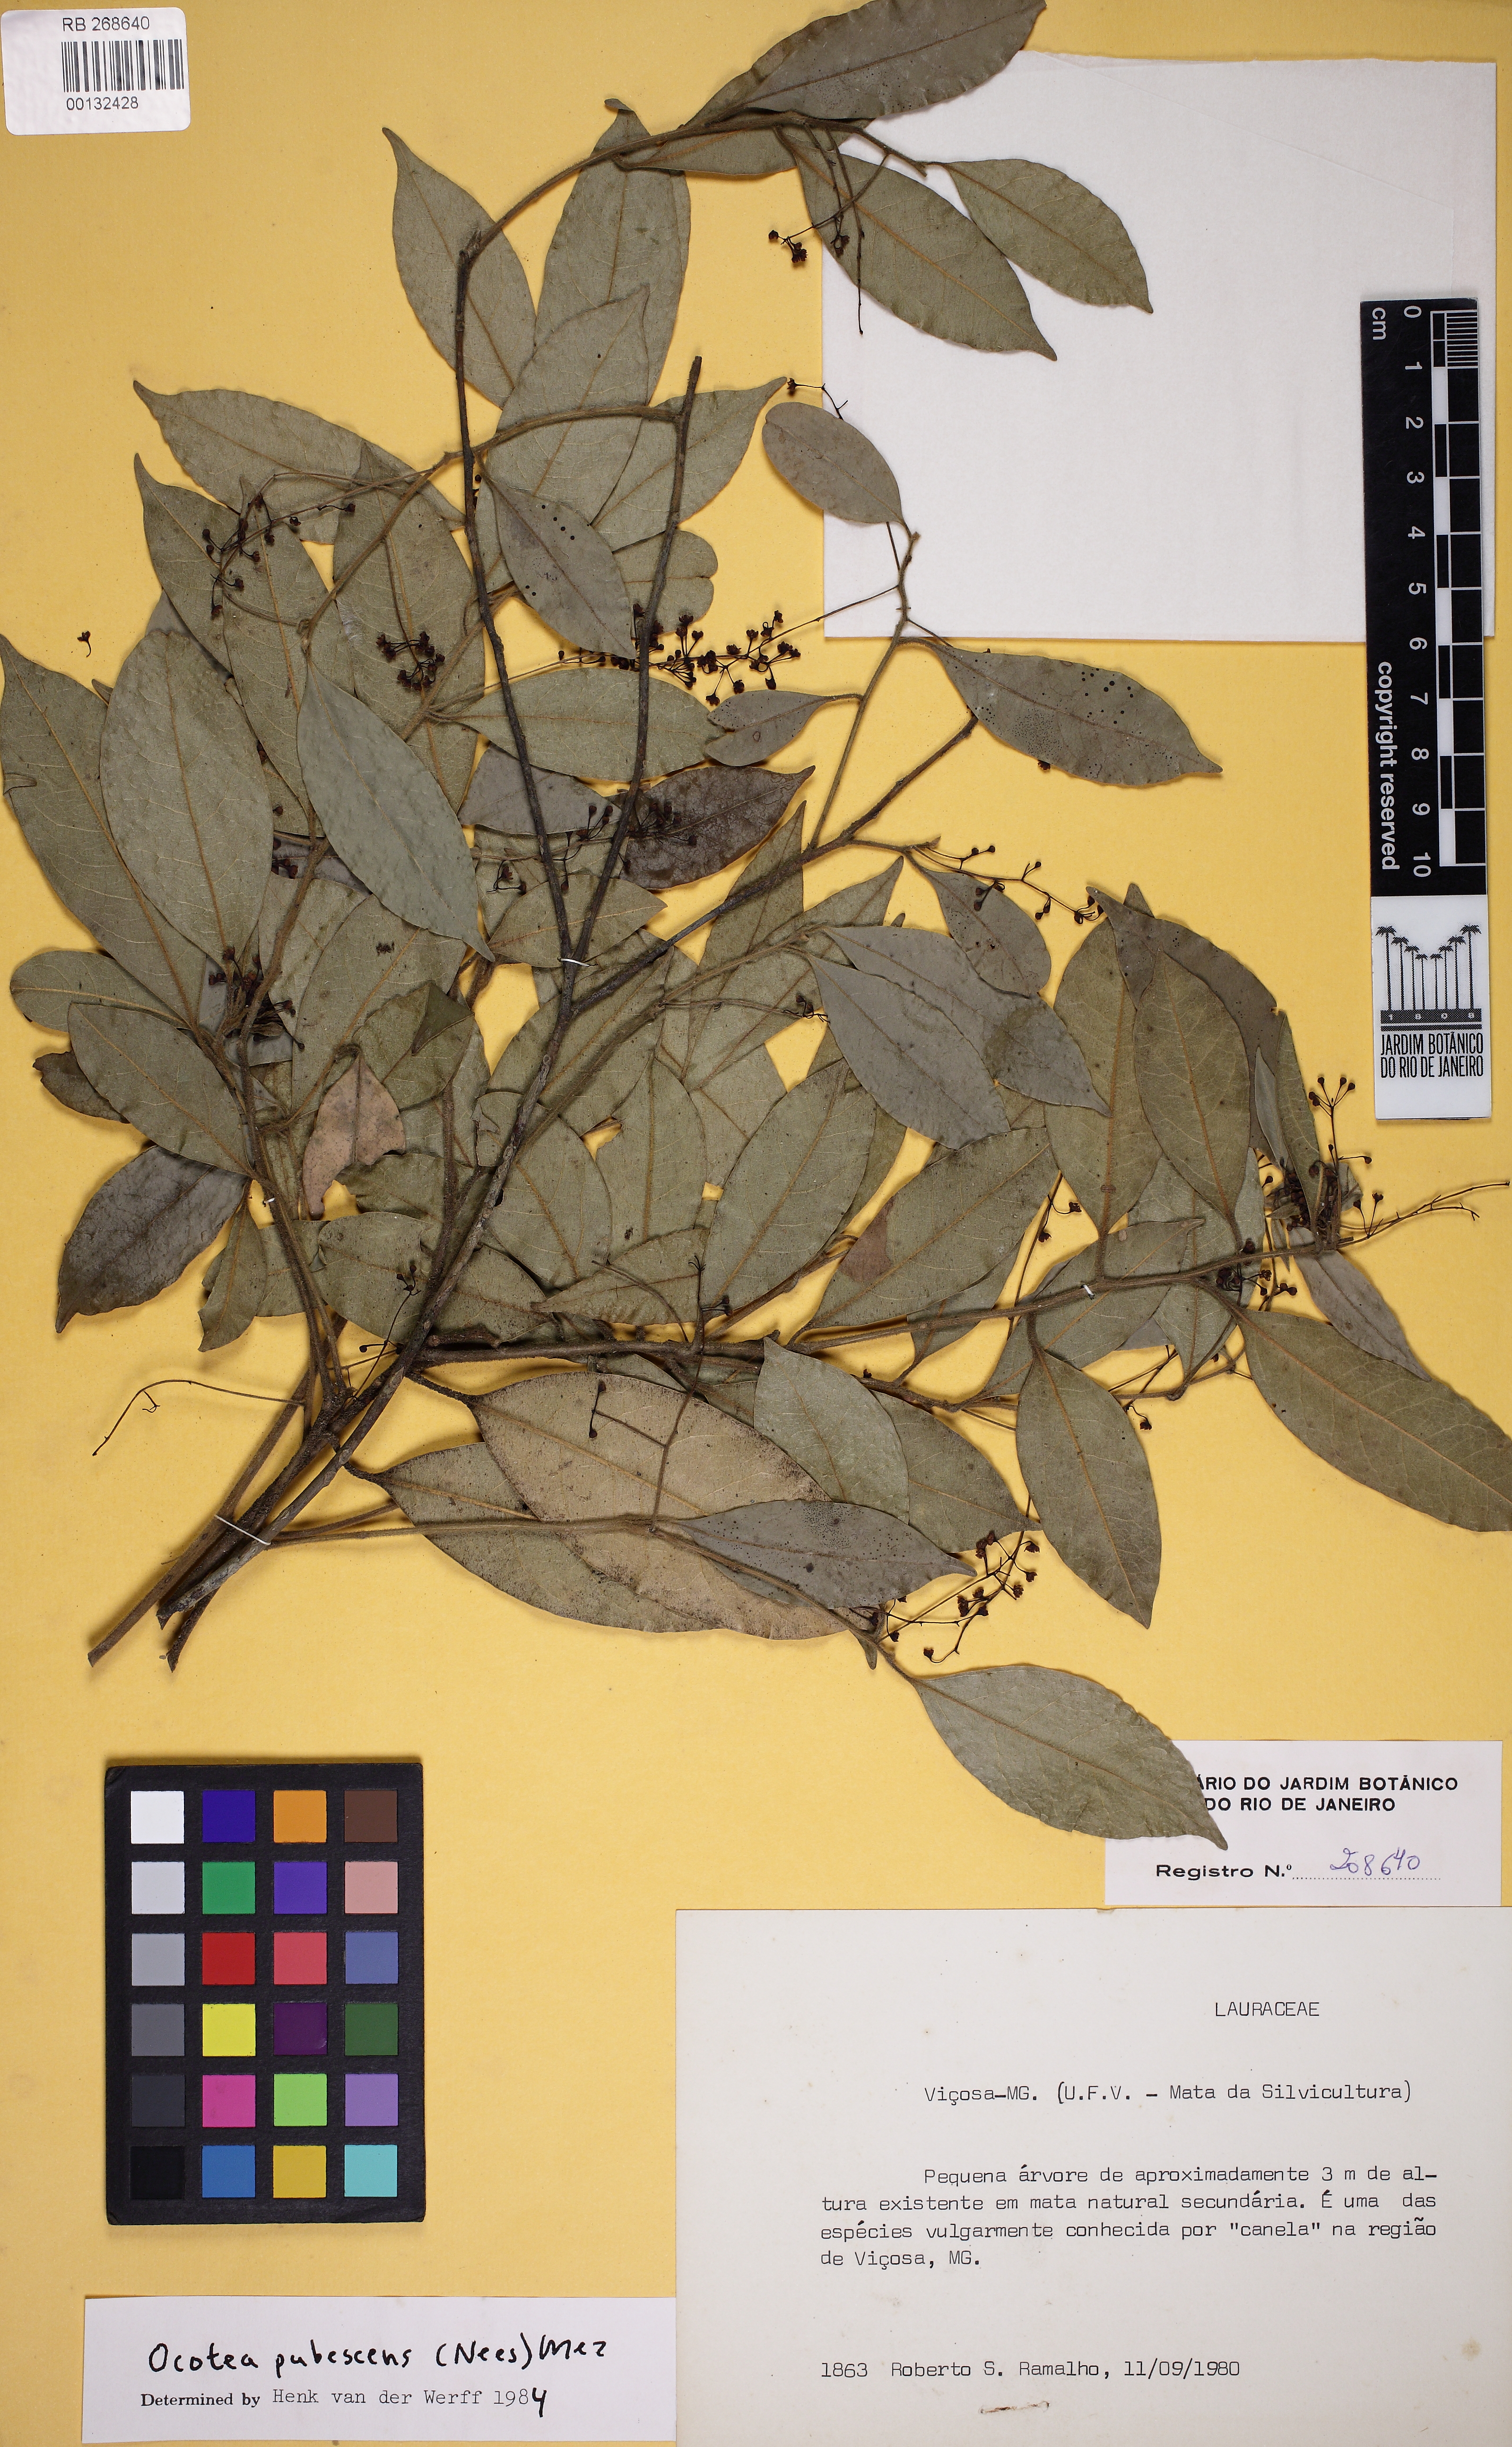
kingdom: Plantae
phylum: Tracheophyta
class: Magnoliopsida
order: Laurales
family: Lauraceae
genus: Ocotea
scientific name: Ocotea villosa
